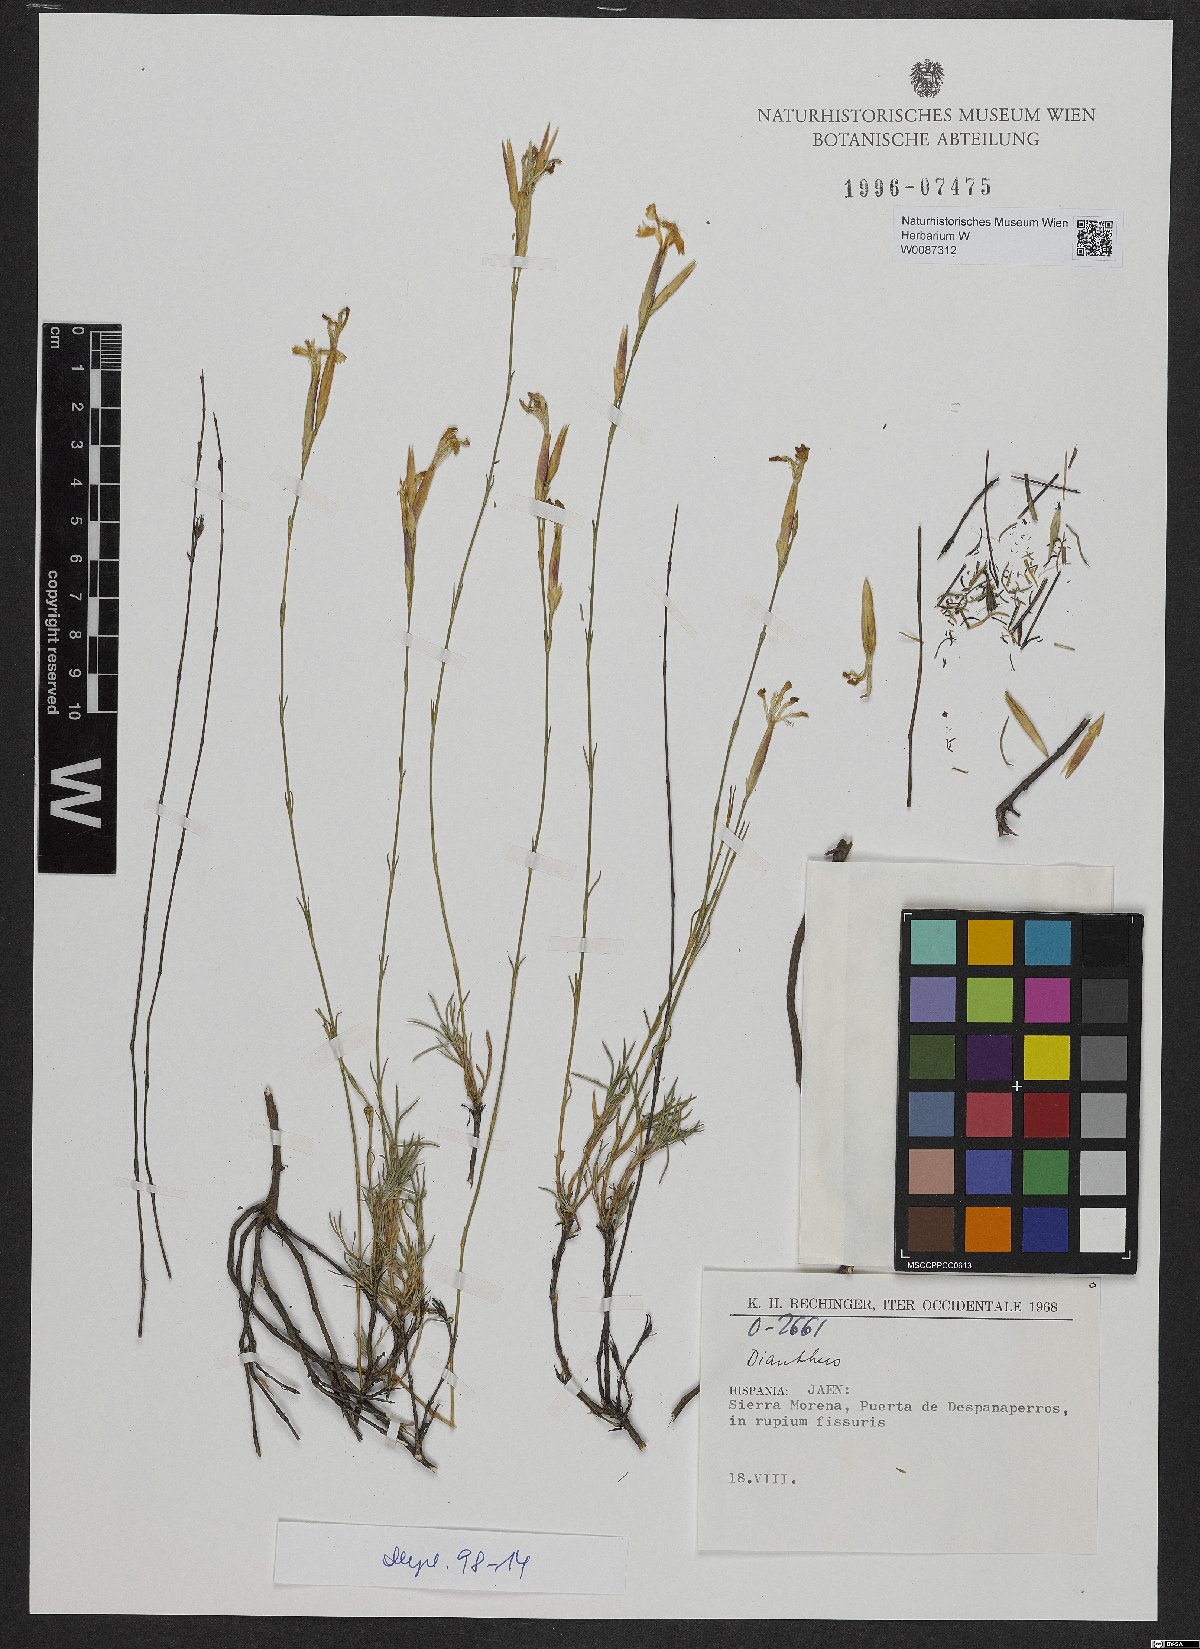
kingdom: Plantae
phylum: Tracheophyta
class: Magnoliopsida
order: Caryophyllales
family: Caryophyllaceae
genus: Dianthus
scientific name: Dianthus
